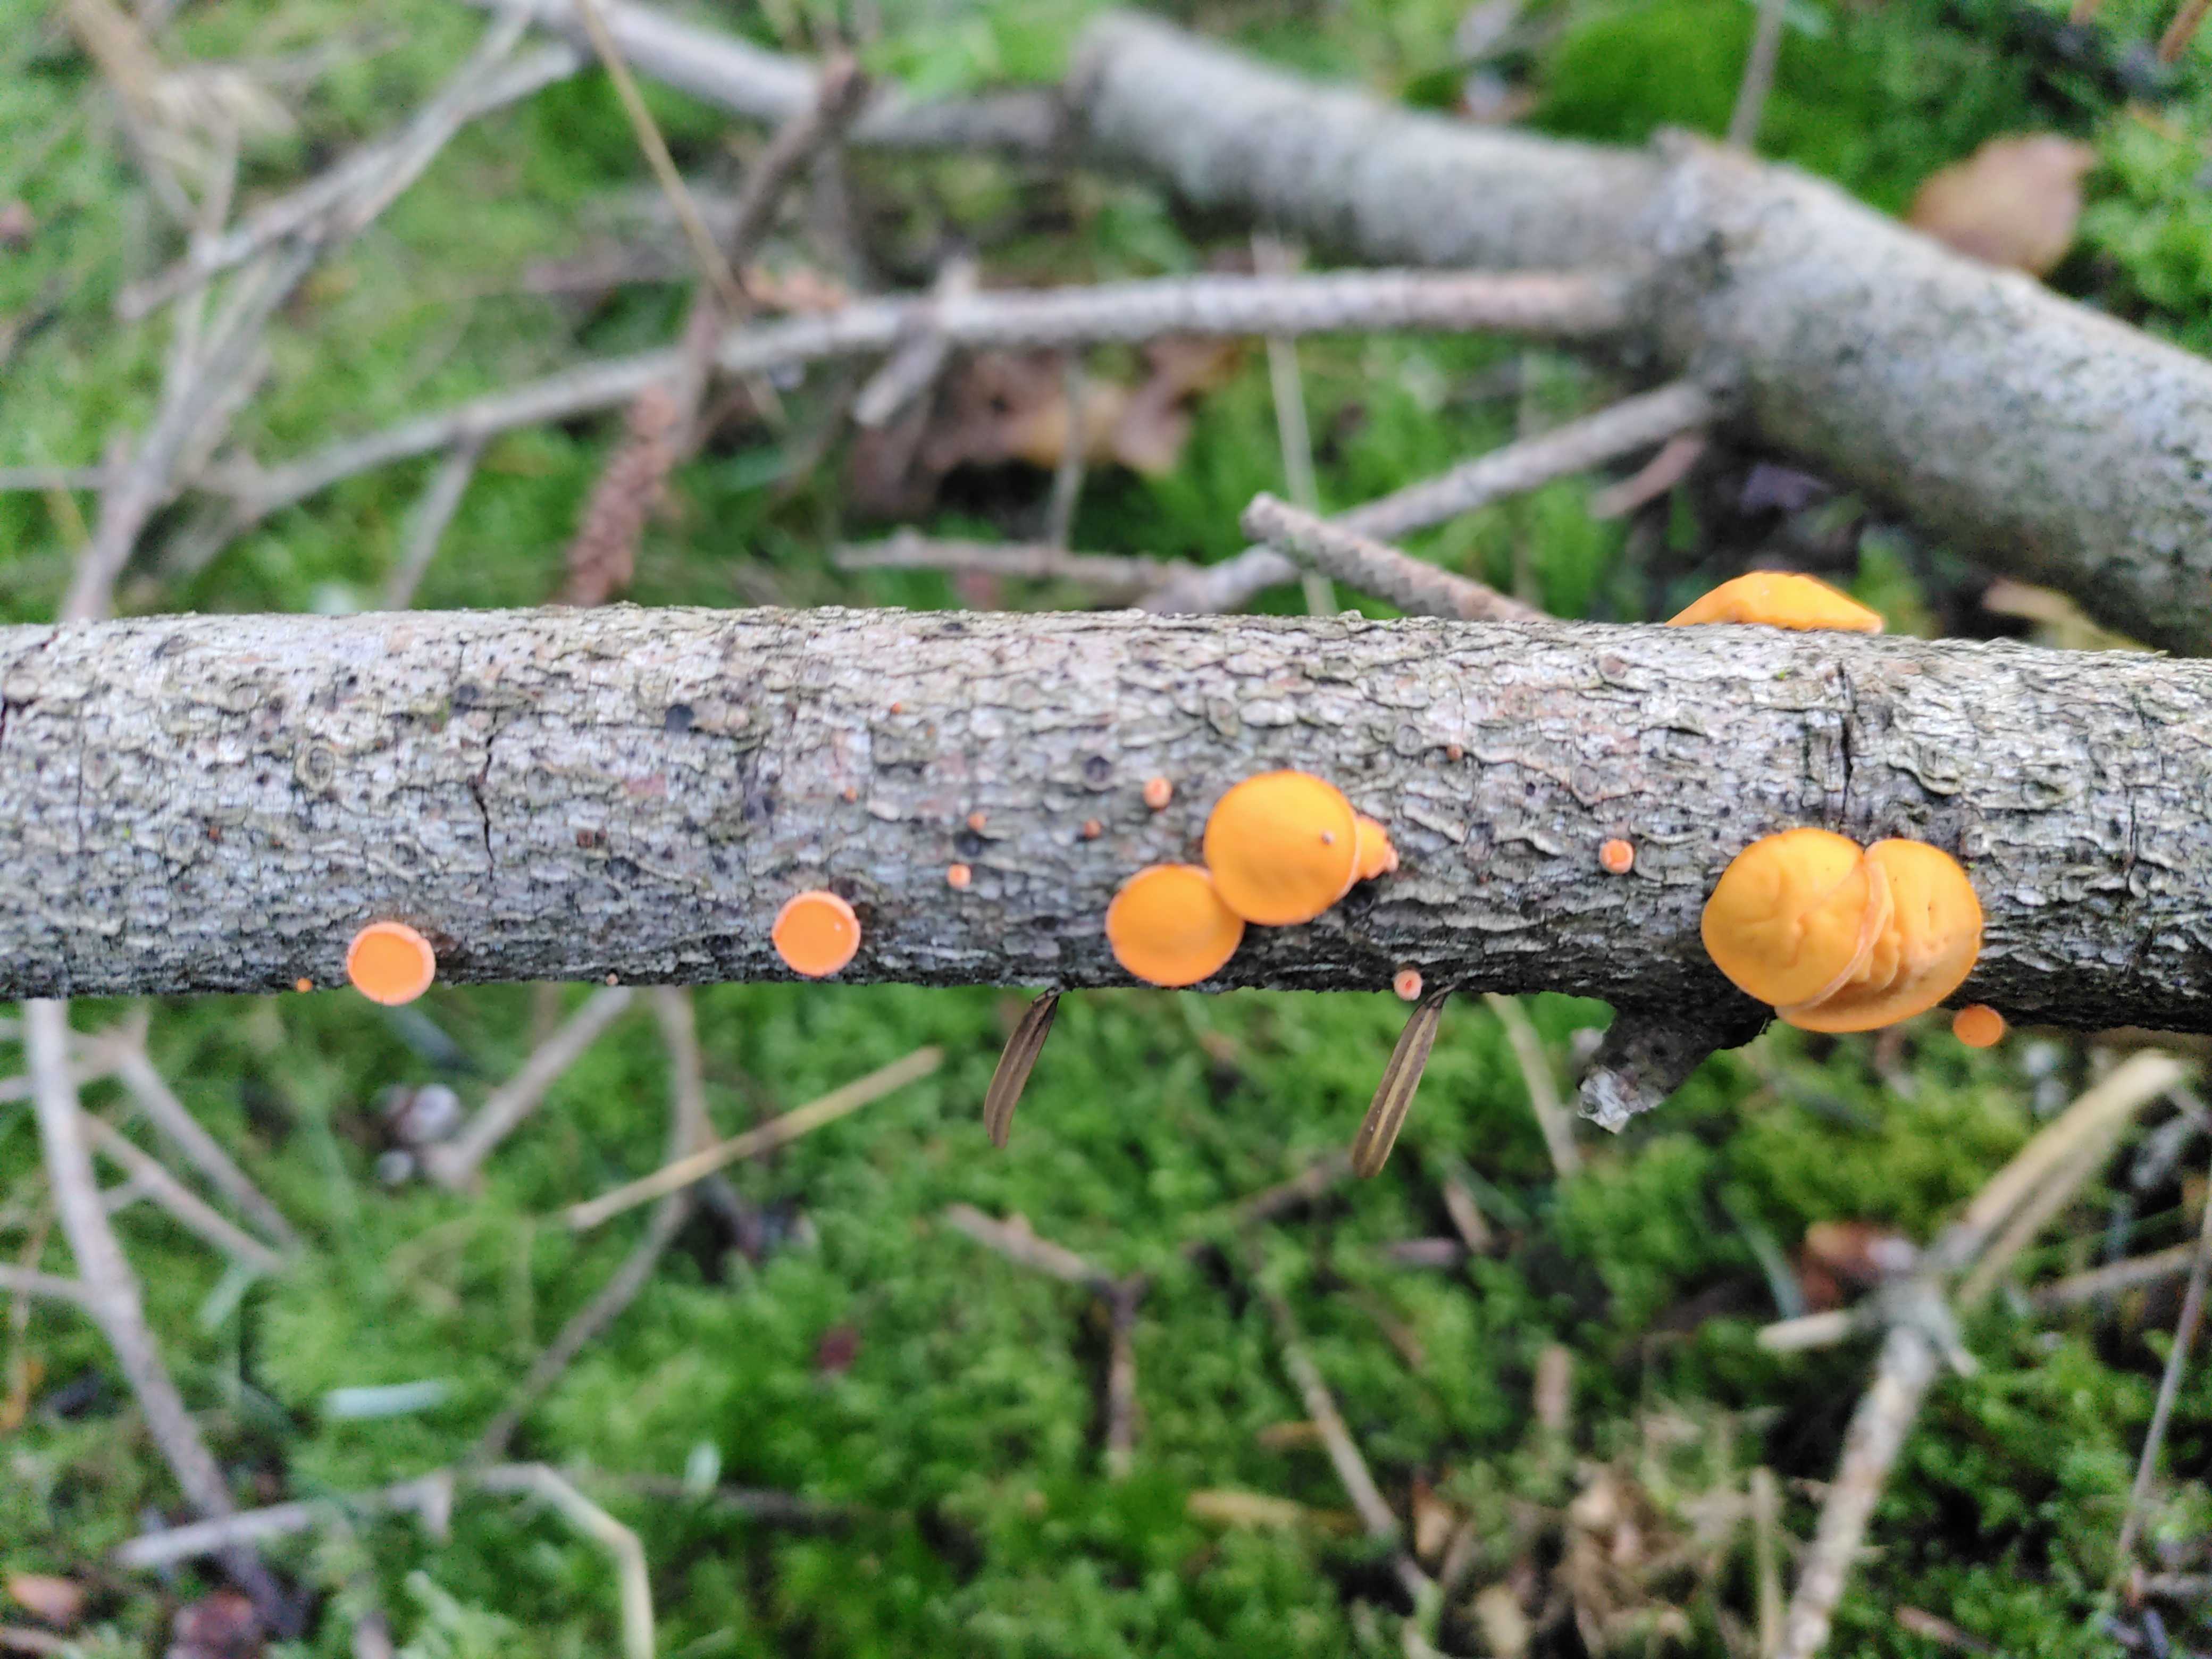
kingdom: Fungi
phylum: Ascomycota
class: Pezizomycetes
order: Pezizales
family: Sarcoscyphaceae
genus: Pithya
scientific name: Pithya vulgaris
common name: stor dukatbæger
